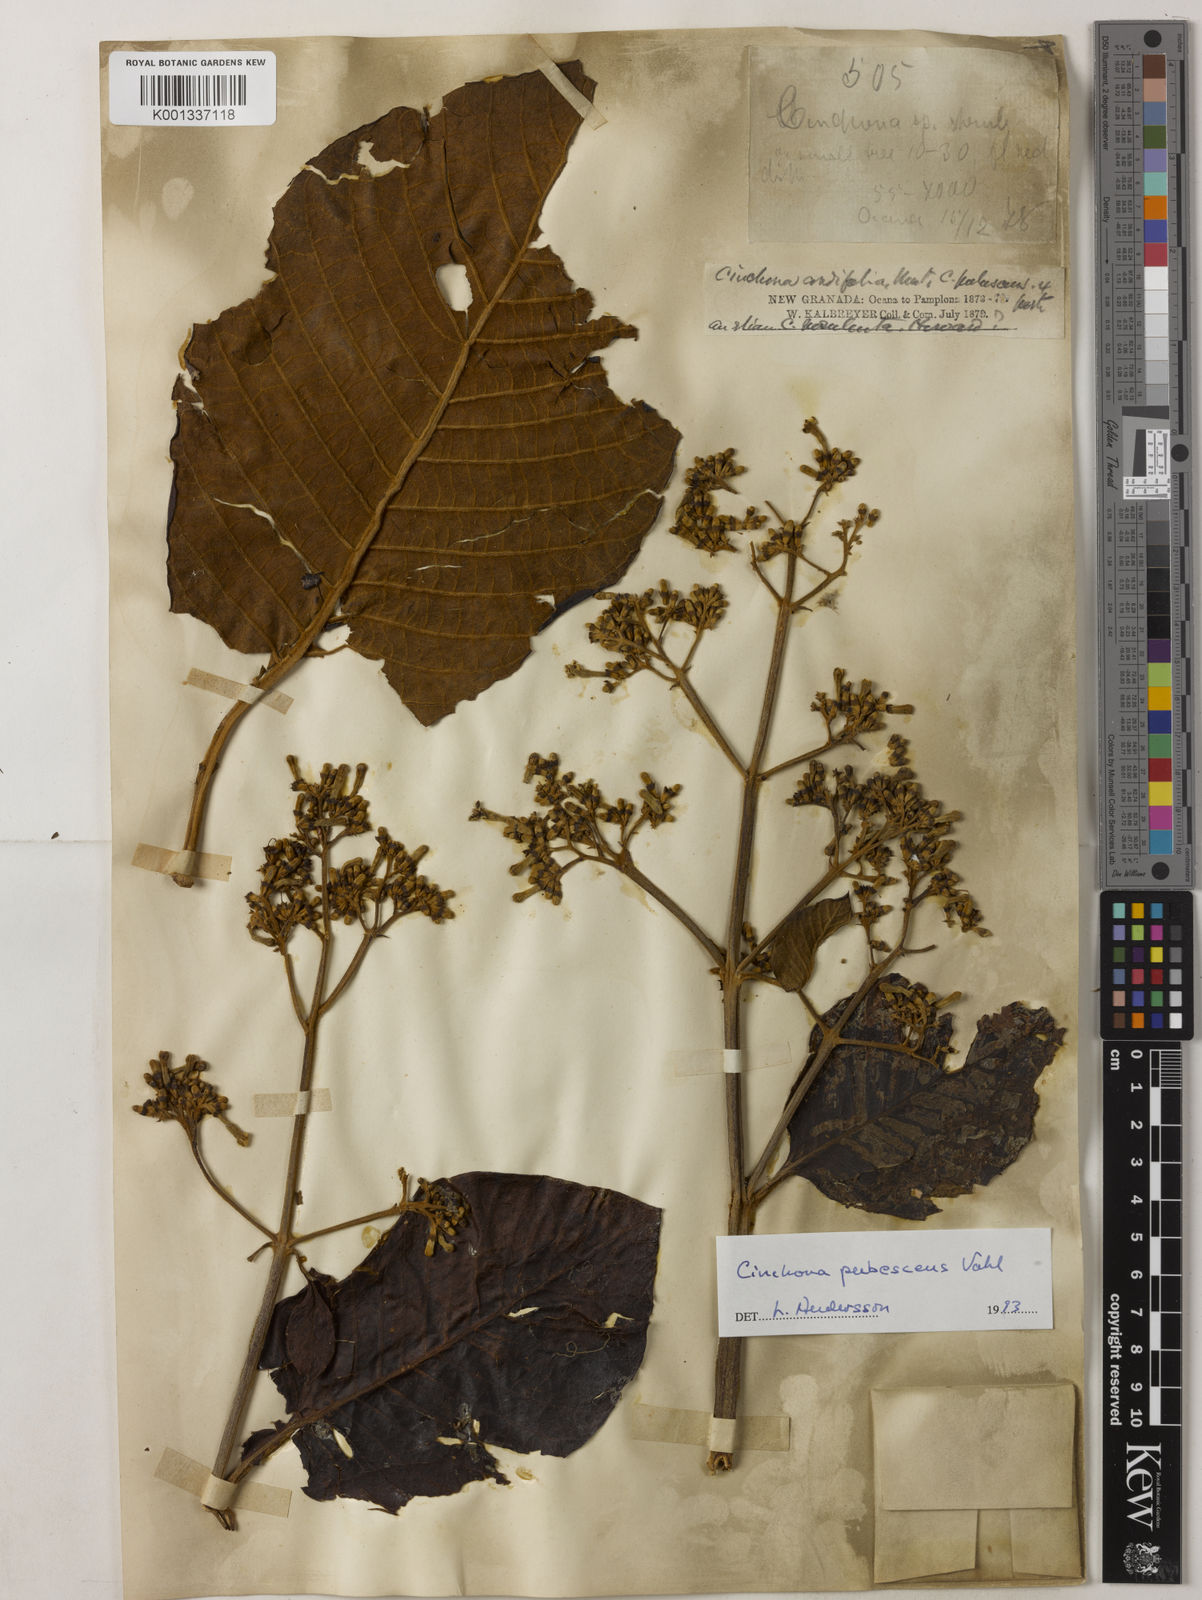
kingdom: Plantae
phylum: Tracheophyta
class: Magnoliopsida
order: Gentianales
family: Rubiaceae
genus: Cinchona
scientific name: Cinchona pubescens
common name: Quinine
